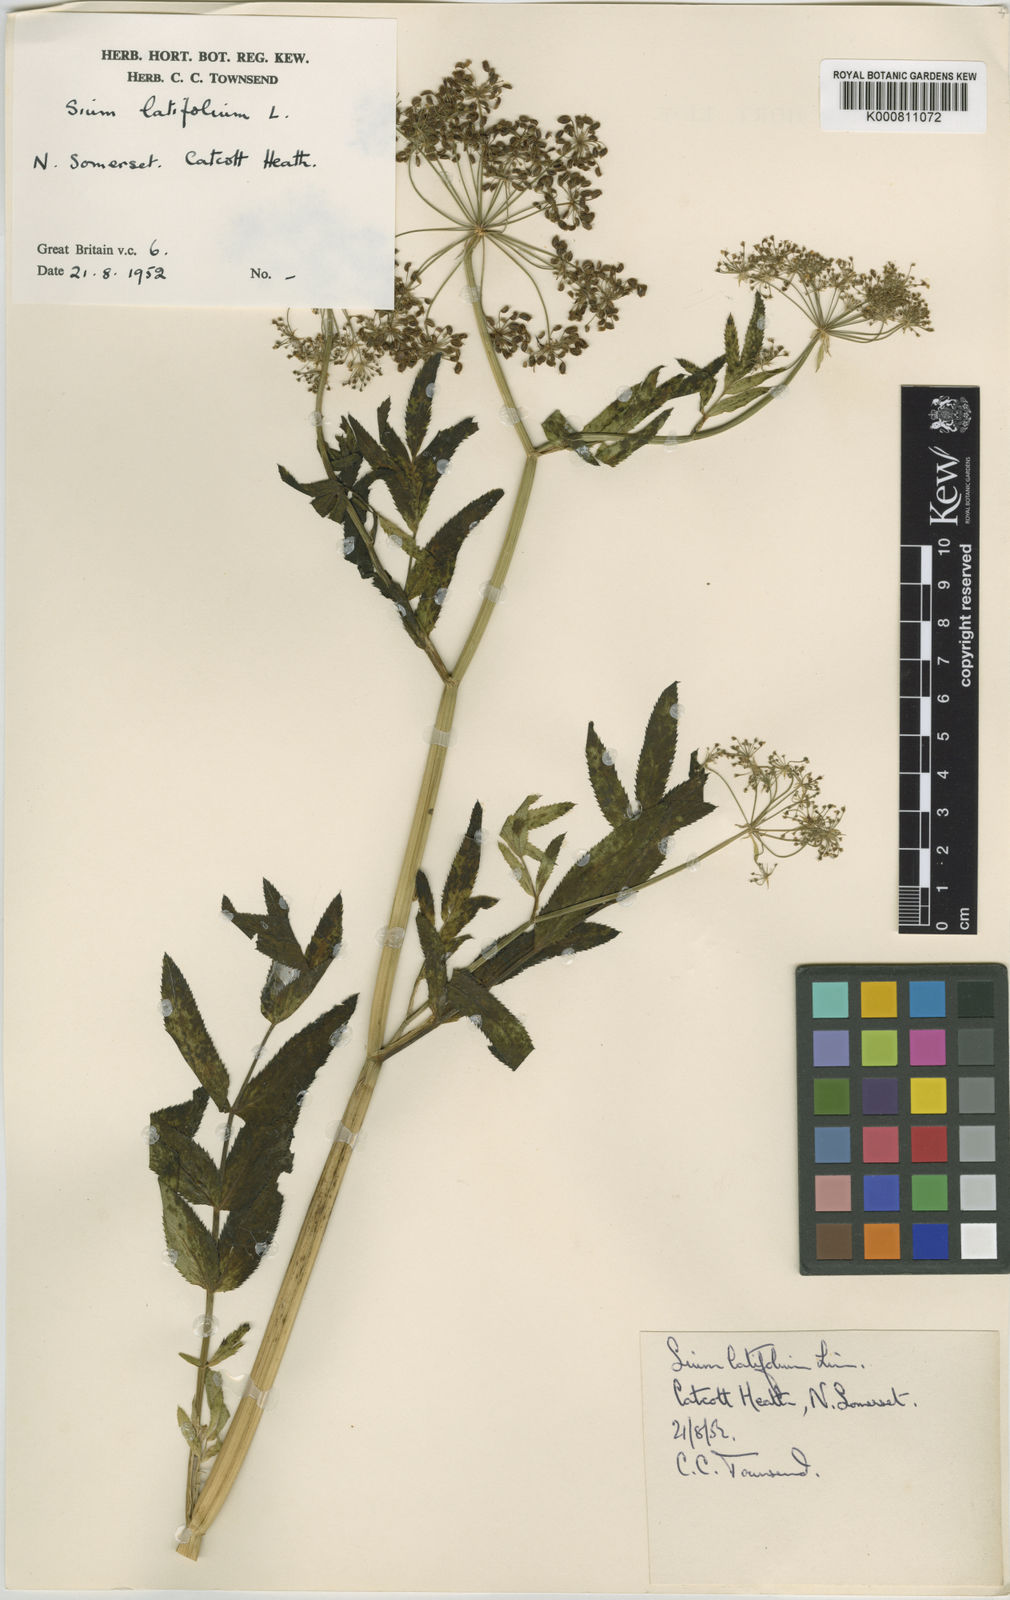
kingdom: Plantae
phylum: Tracheophyta
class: Magnoliopsida
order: Apiales
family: Apiaceae
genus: Sium
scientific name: Sium latifolium
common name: Greater water-parsnip
